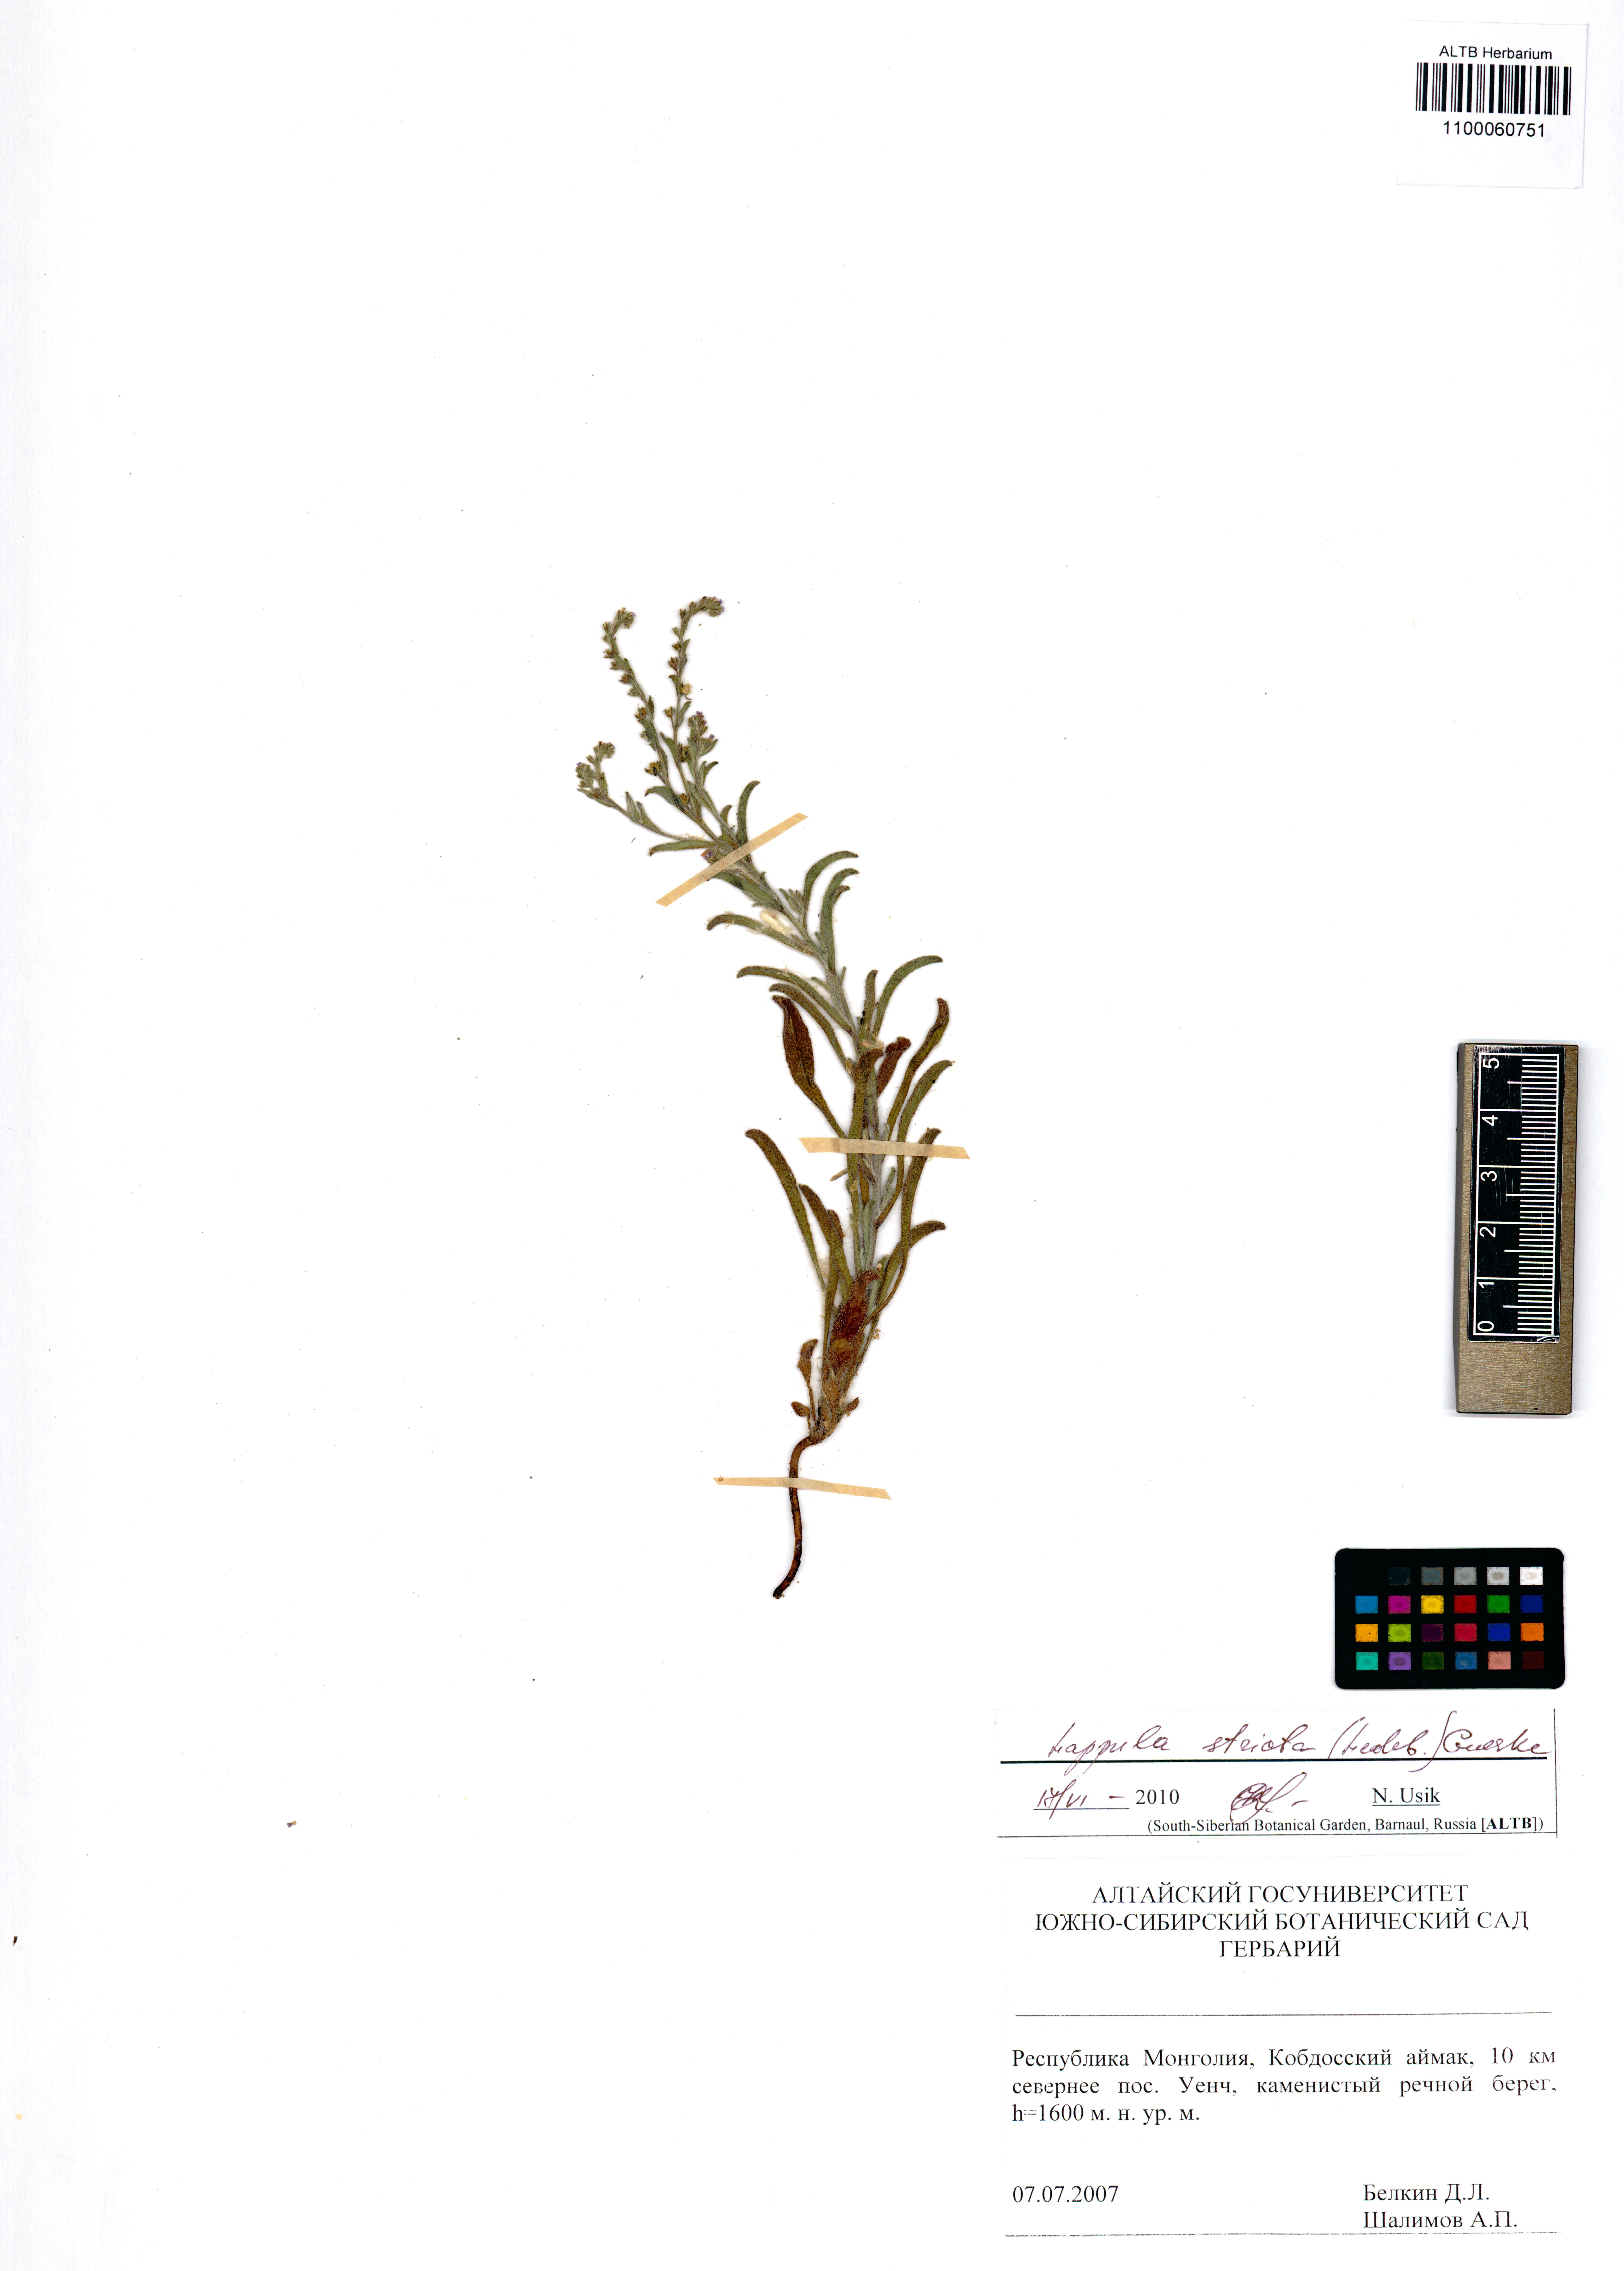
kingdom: Plantae
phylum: Tracheophyta
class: Magnoliopsida
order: Boraginales
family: Boraginaceae
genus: Lappula
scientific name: Lappula stricta
